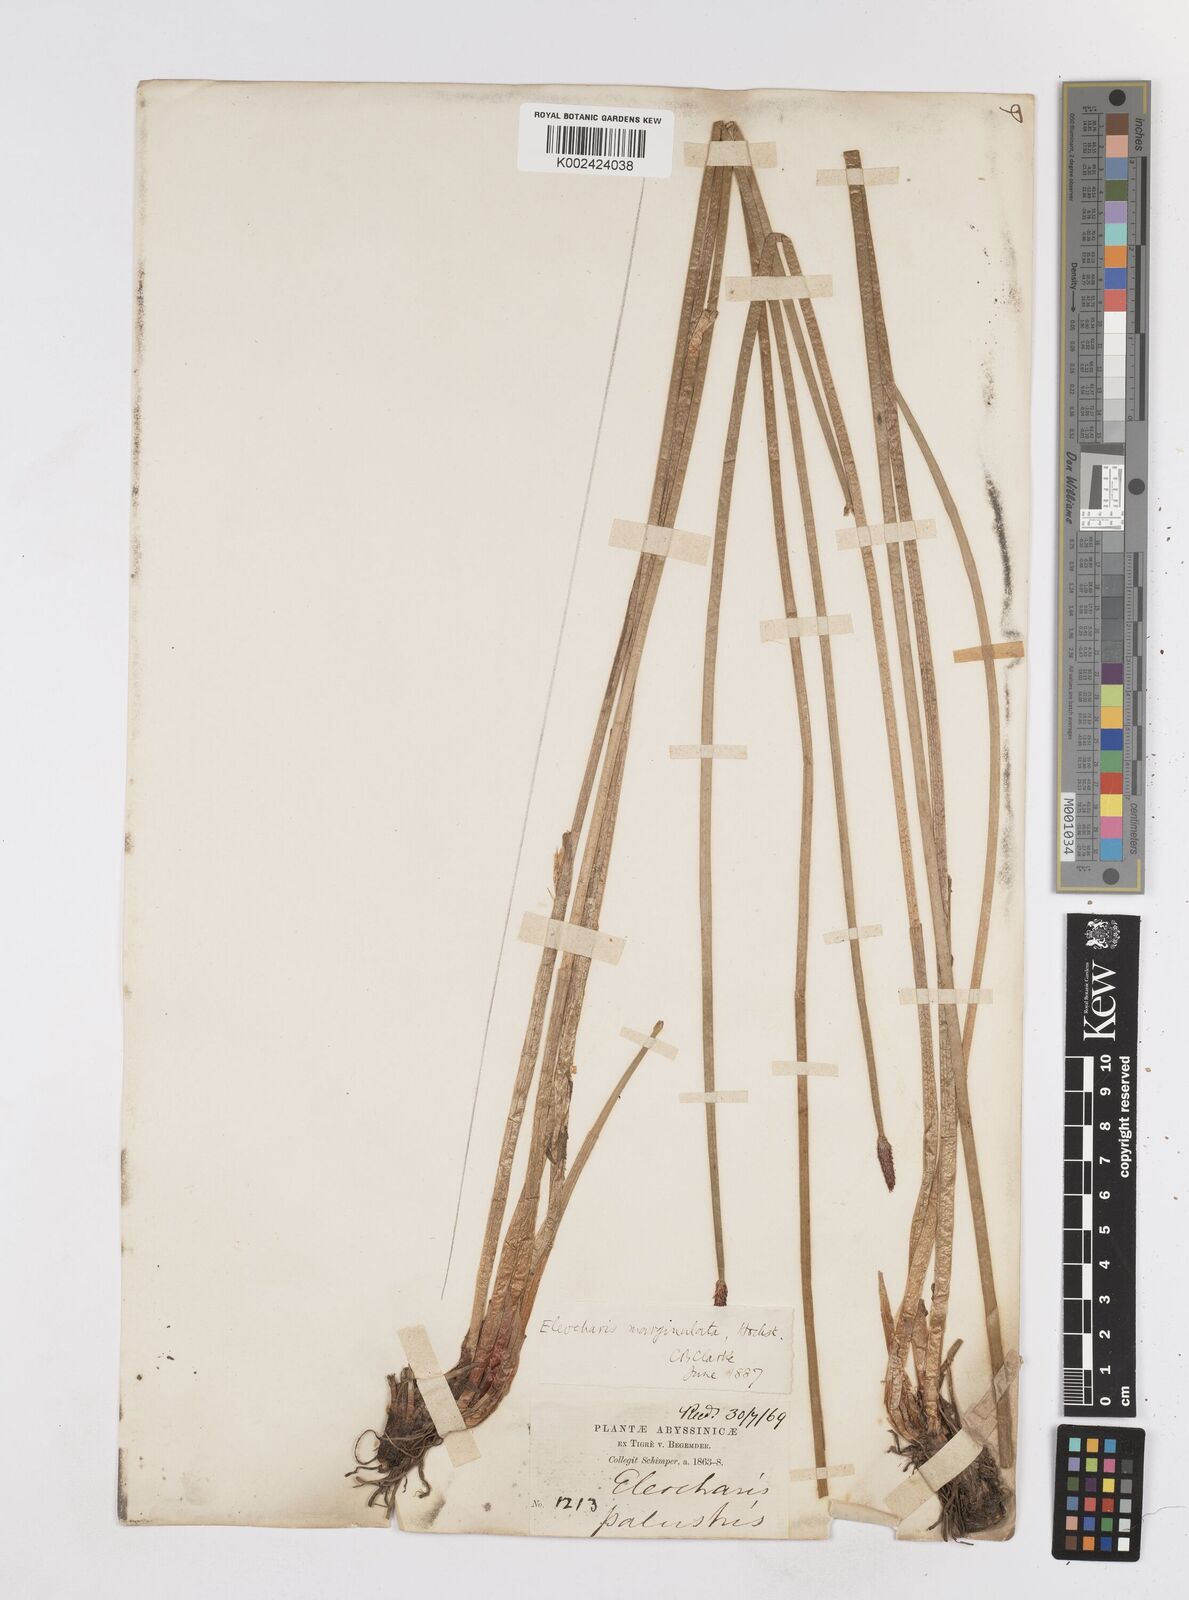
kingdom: Plantae
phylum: Tracheophyta
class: Liliopsida
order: Poales
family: Cyperaceae
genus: Eleocharis
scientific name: Eleocharis marginulata
